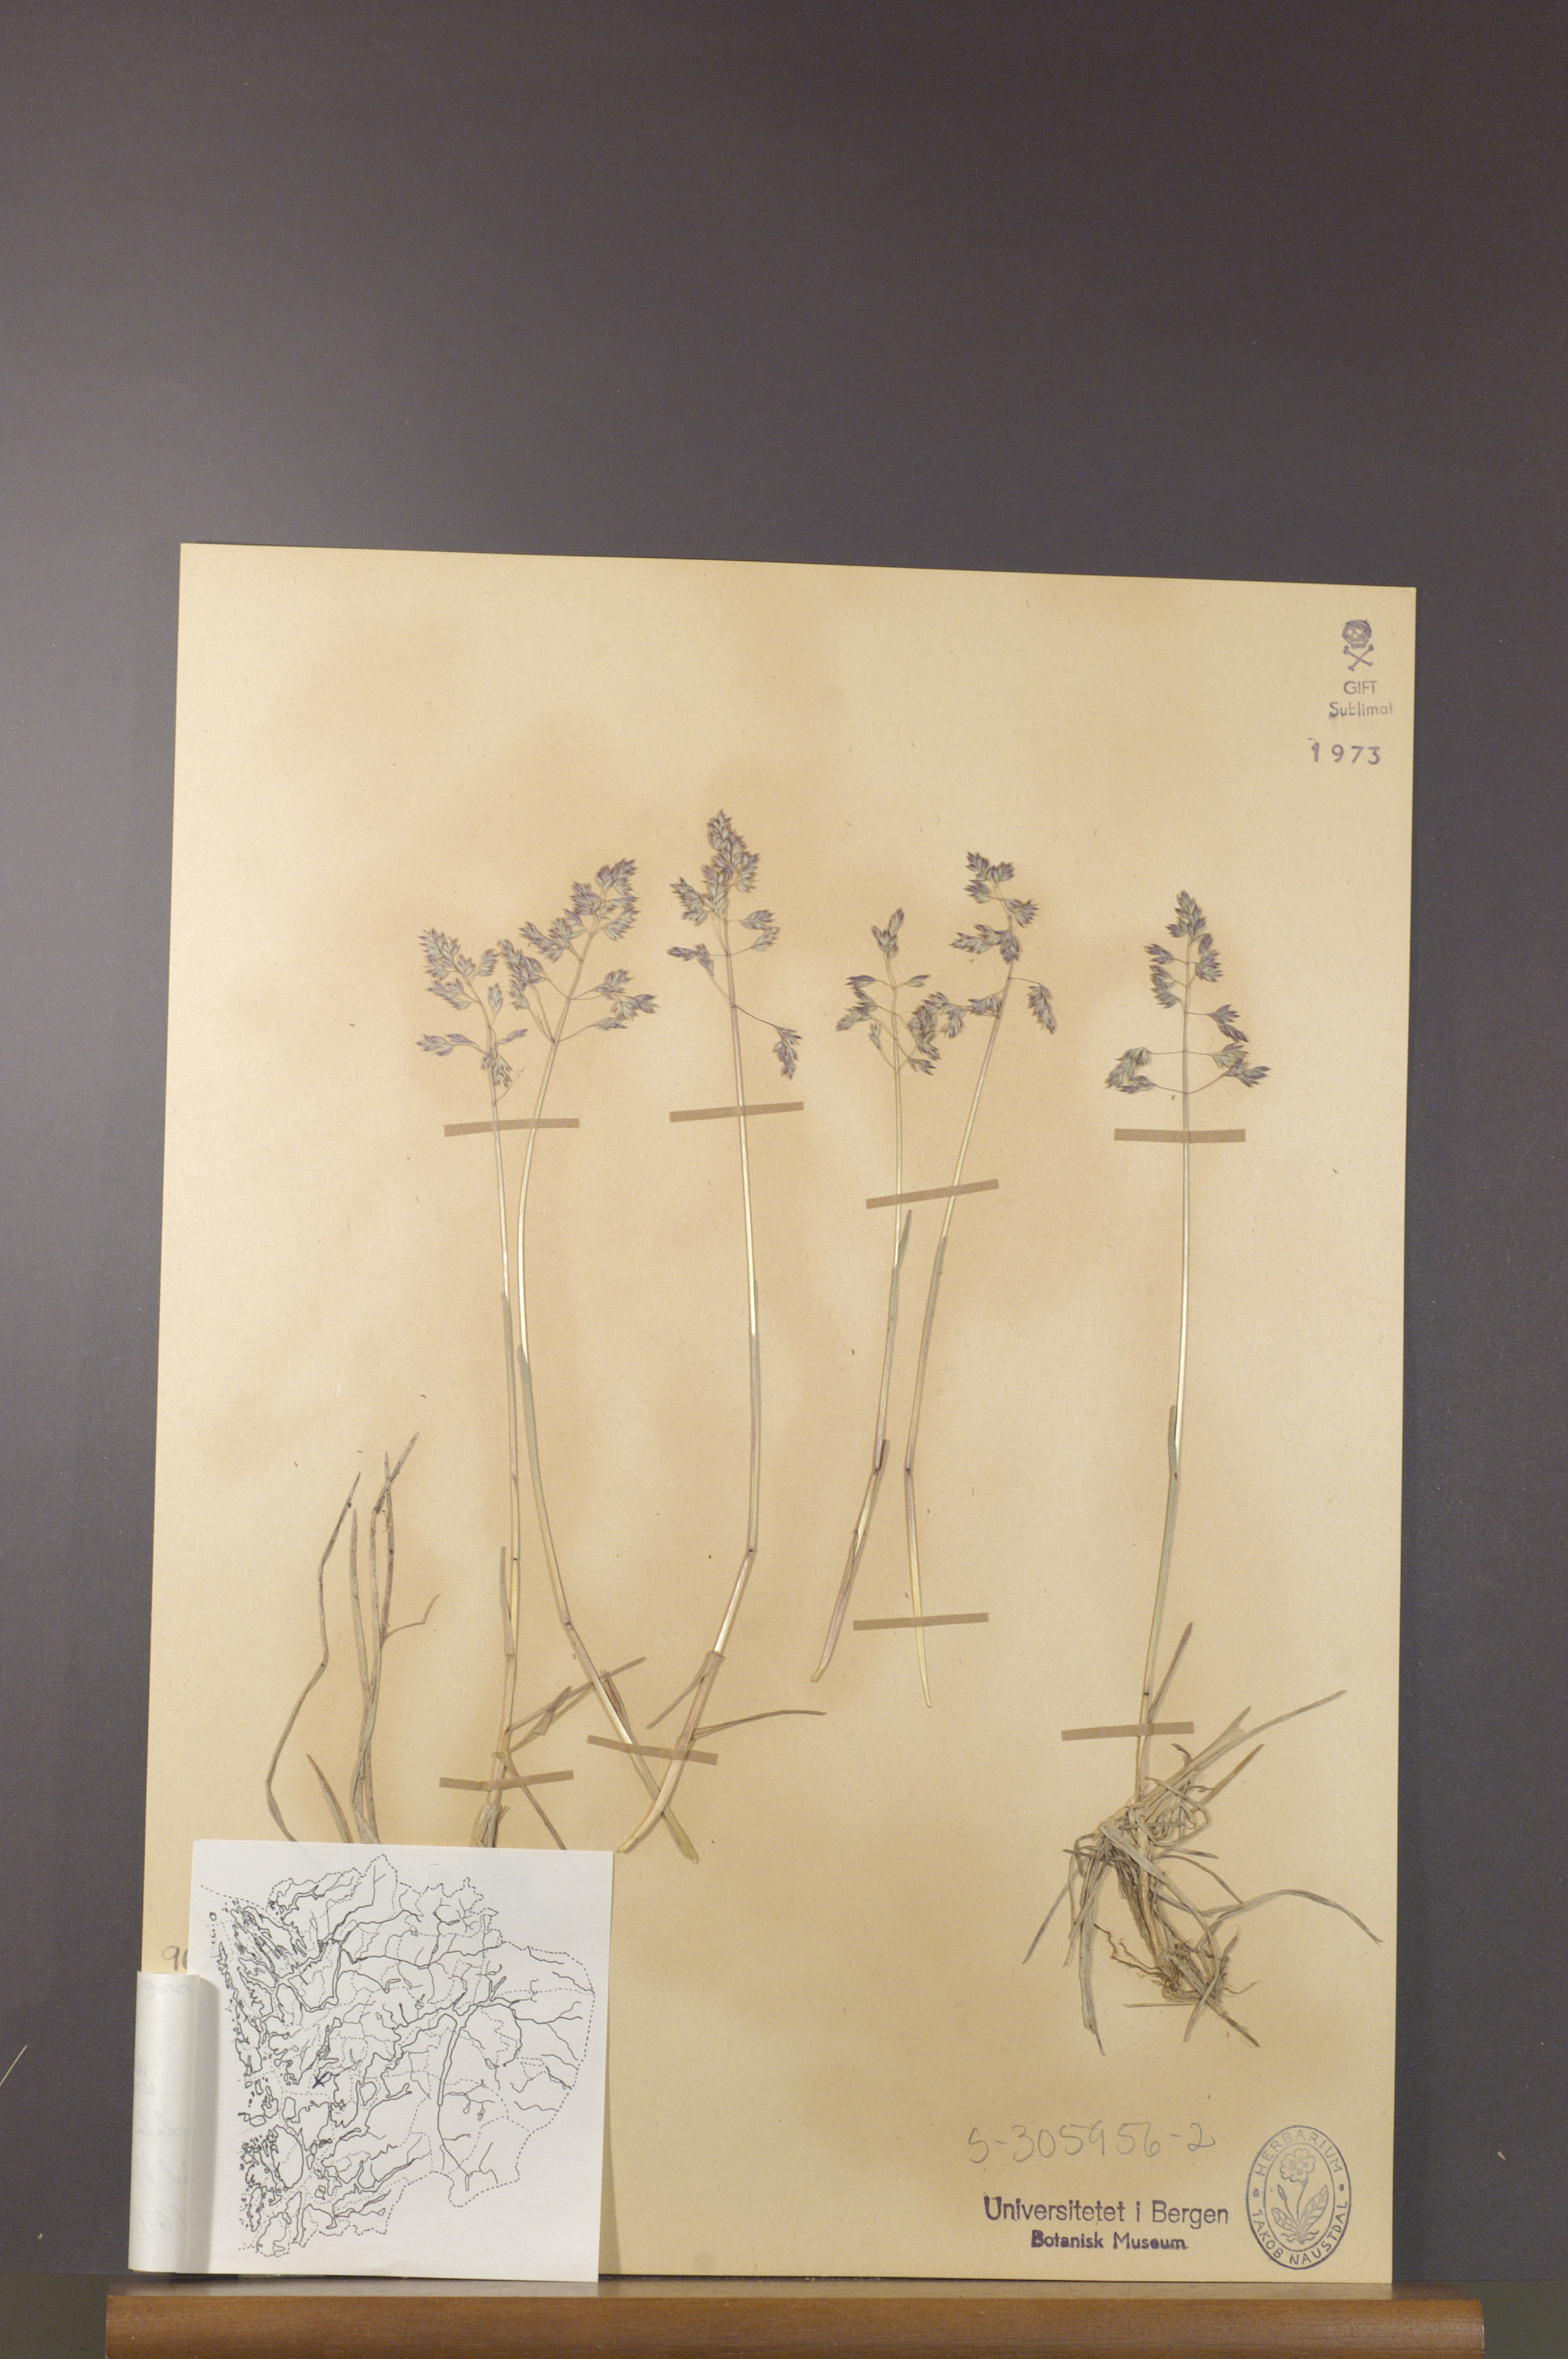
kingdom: Plantae
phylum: Tracheophyta
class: Liliopsida
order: Poales
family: Poaceae
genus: Poa
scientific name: Poa humilis
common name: Spreading meadow-grass
